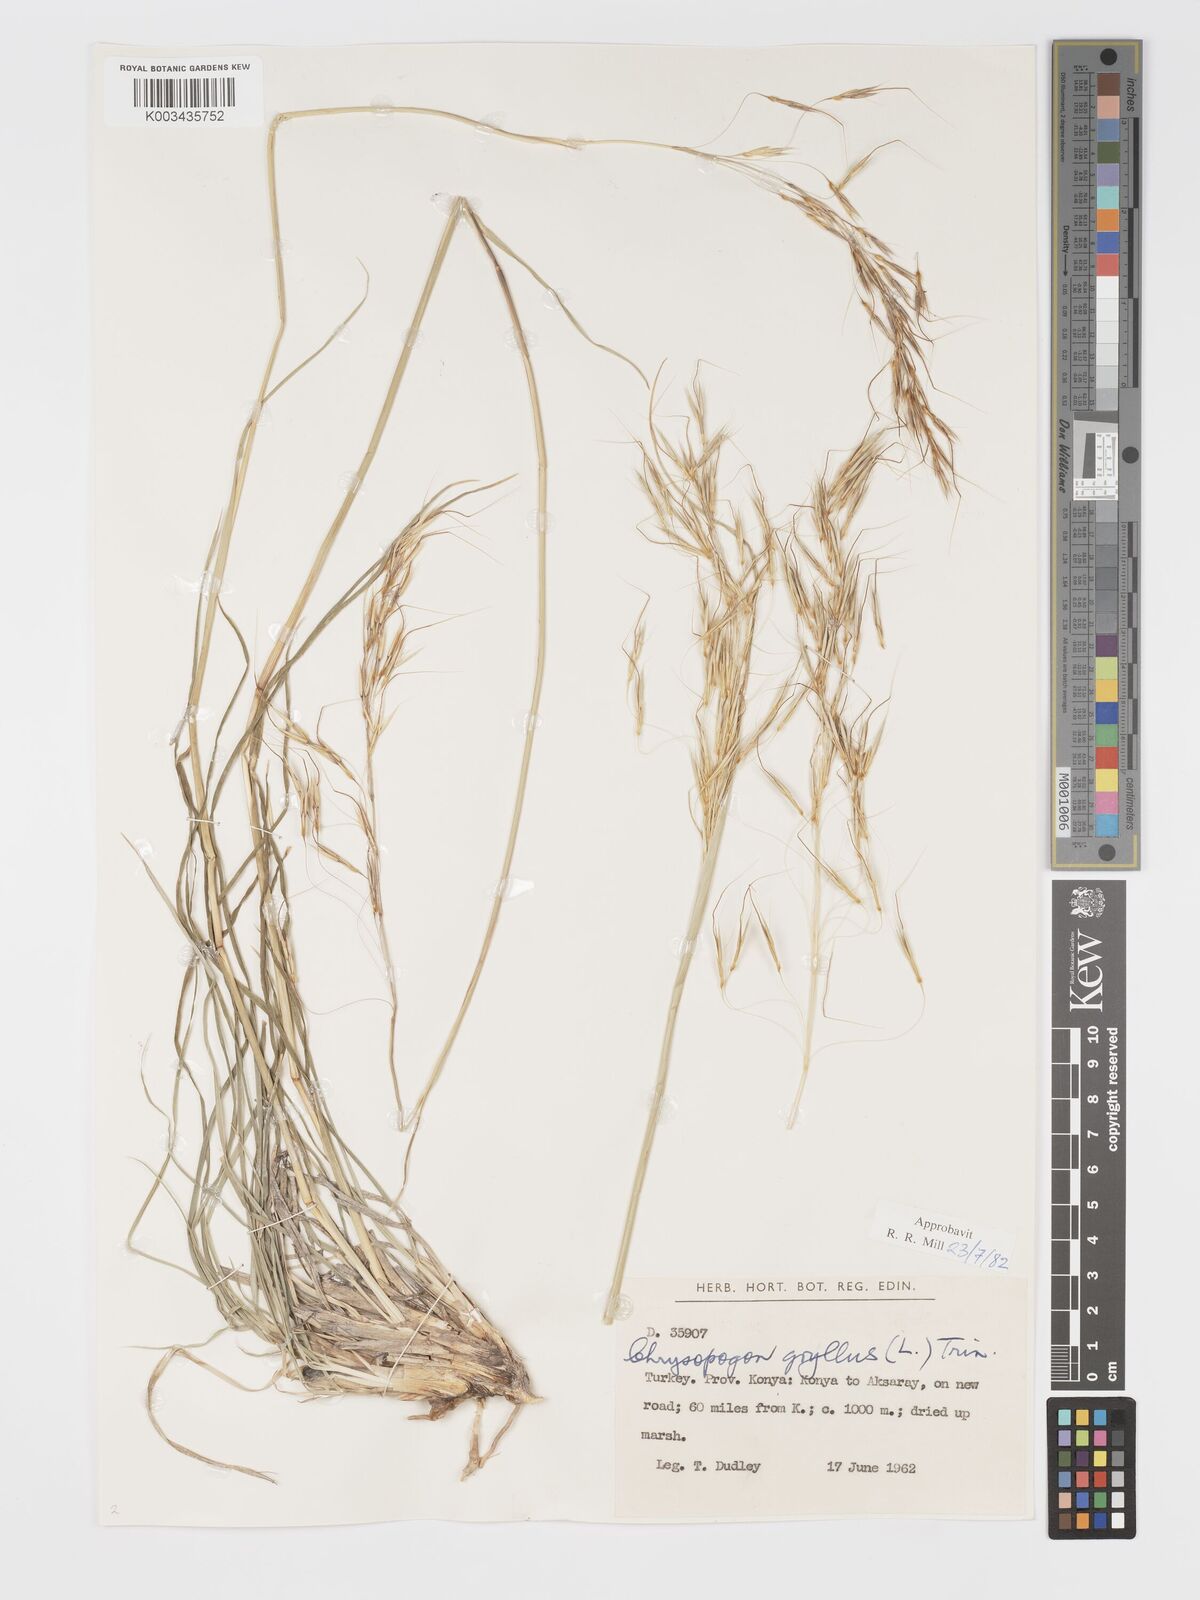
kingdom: Plantae
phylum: Tracheophyta
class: Liliopsida
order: Poales
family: Poaceae
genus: Chrysopogon
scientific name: Chrysopogon gryllus
